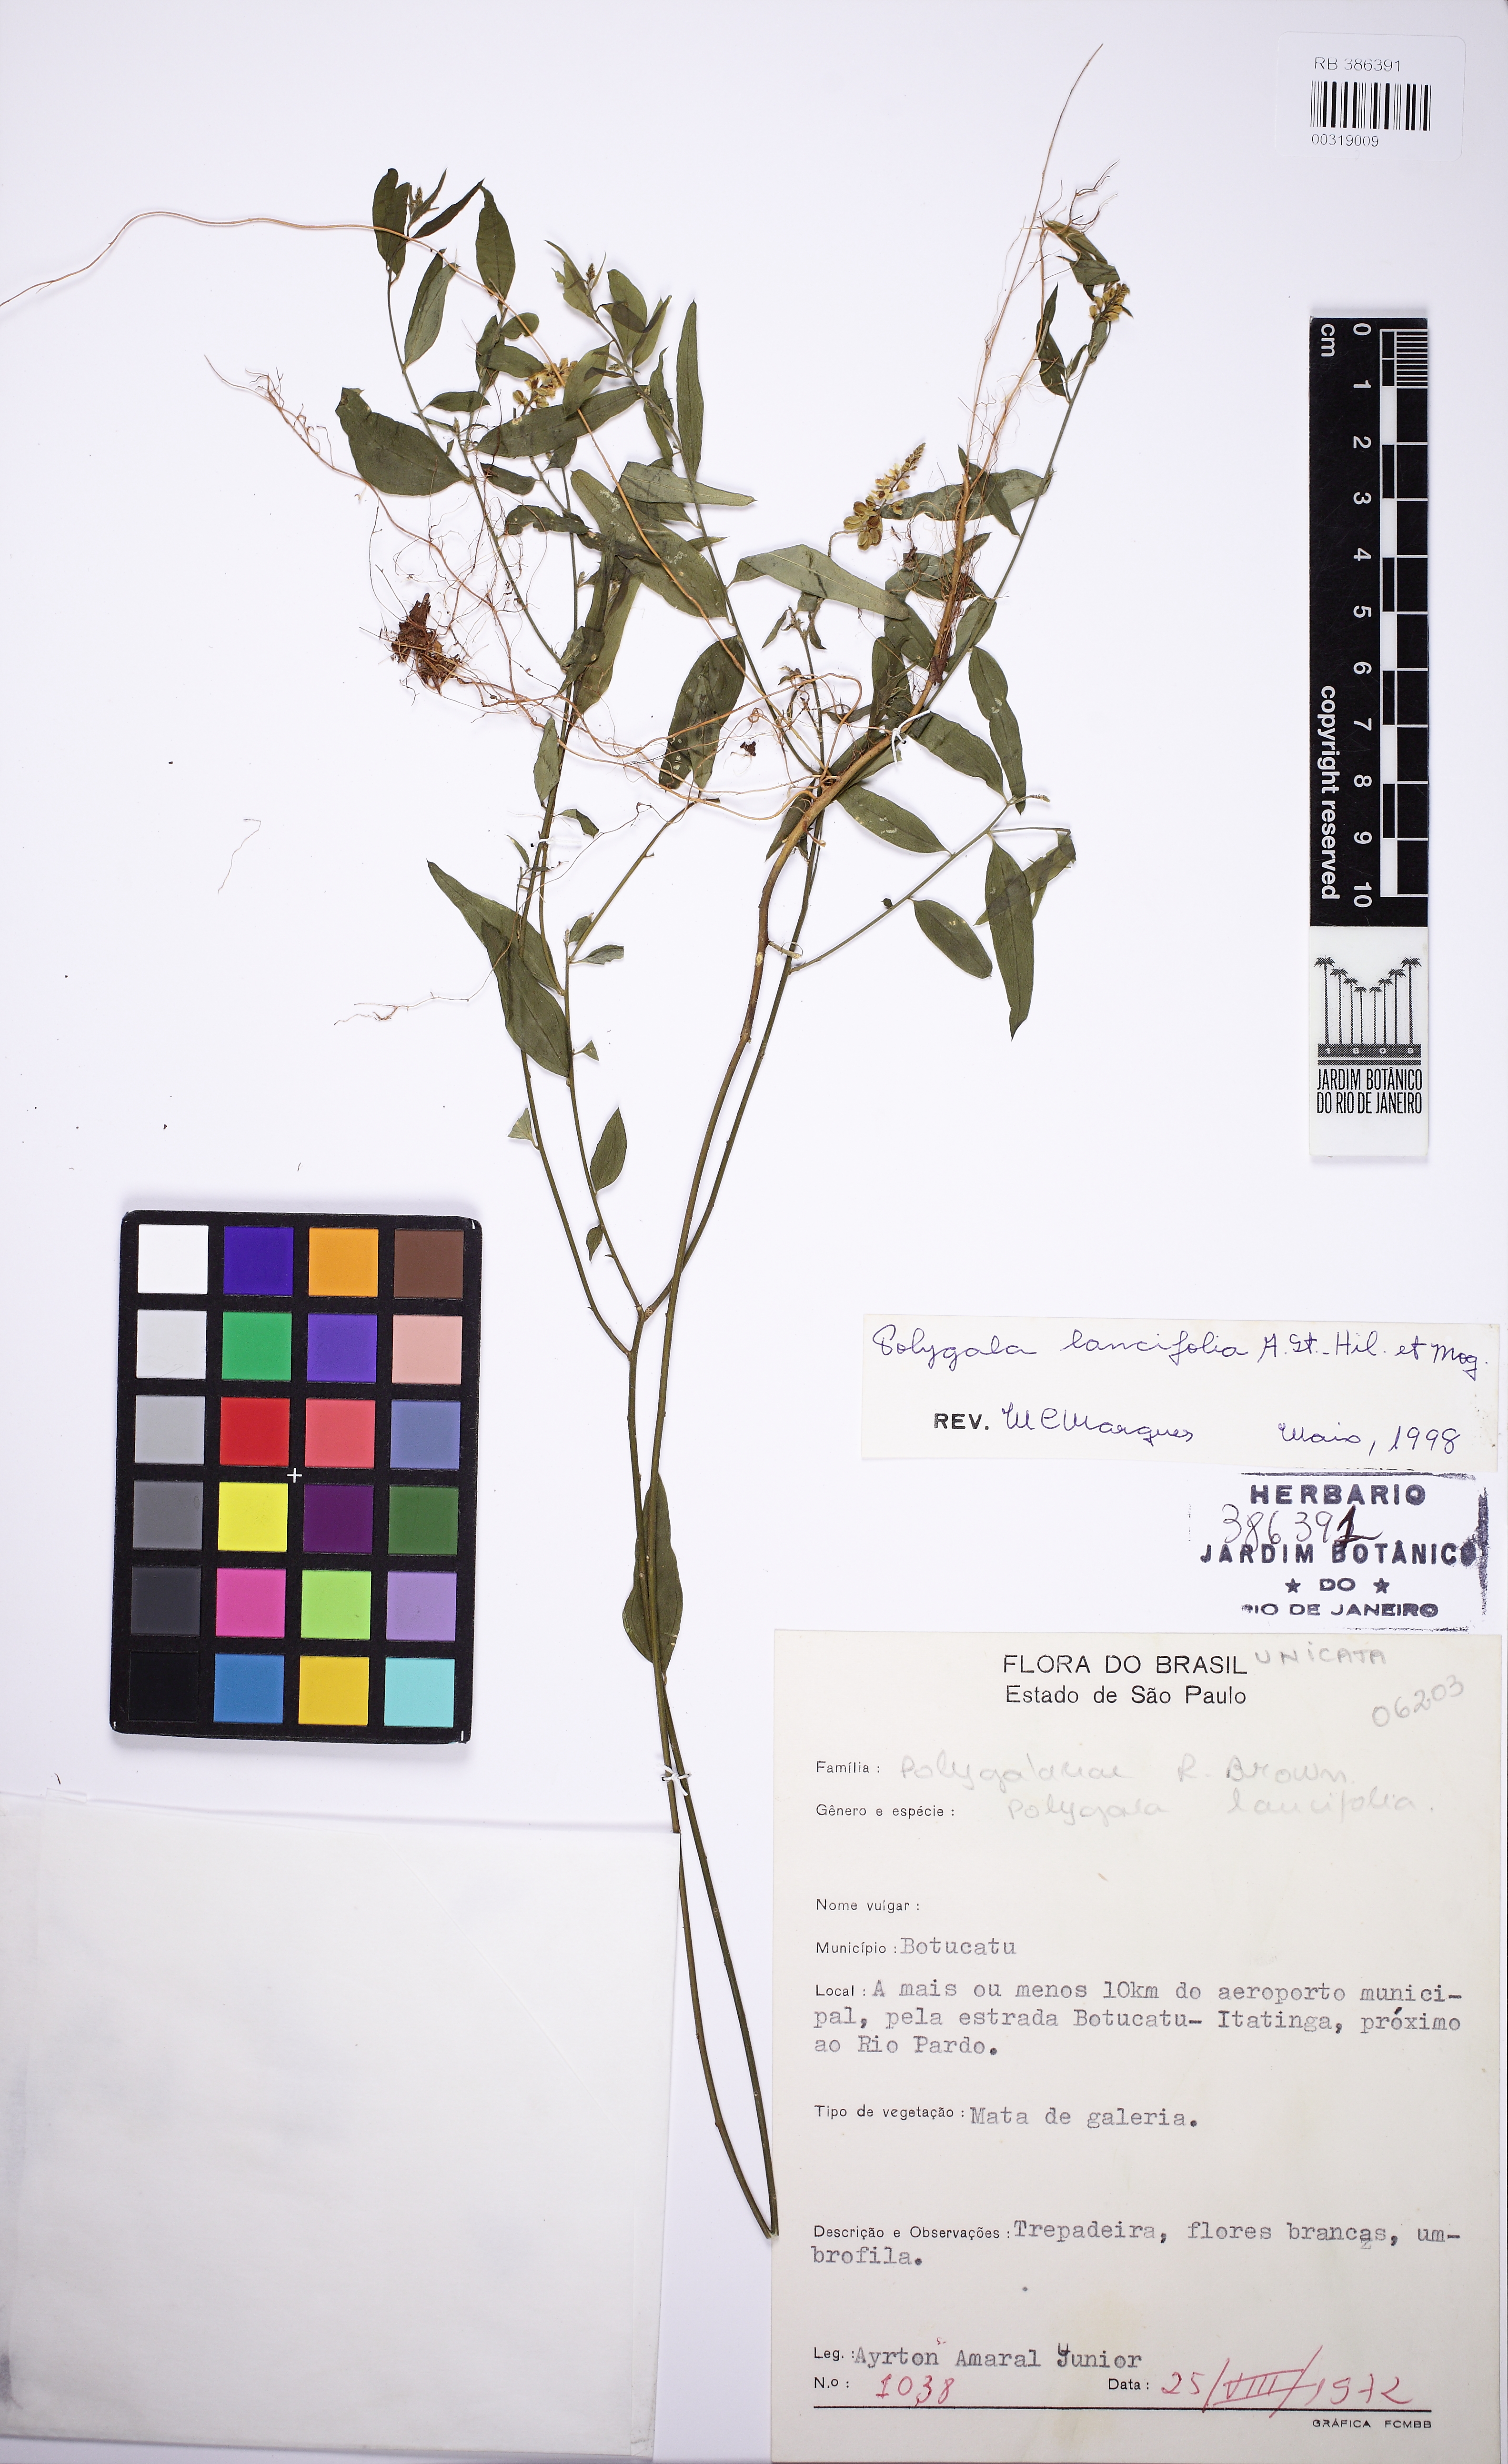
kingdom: Plantae
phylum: Tracheophyta
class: Magnoliopsida
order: Fabales
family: Polygalaceae
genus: Polygala
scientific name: Polygala lancifolia
